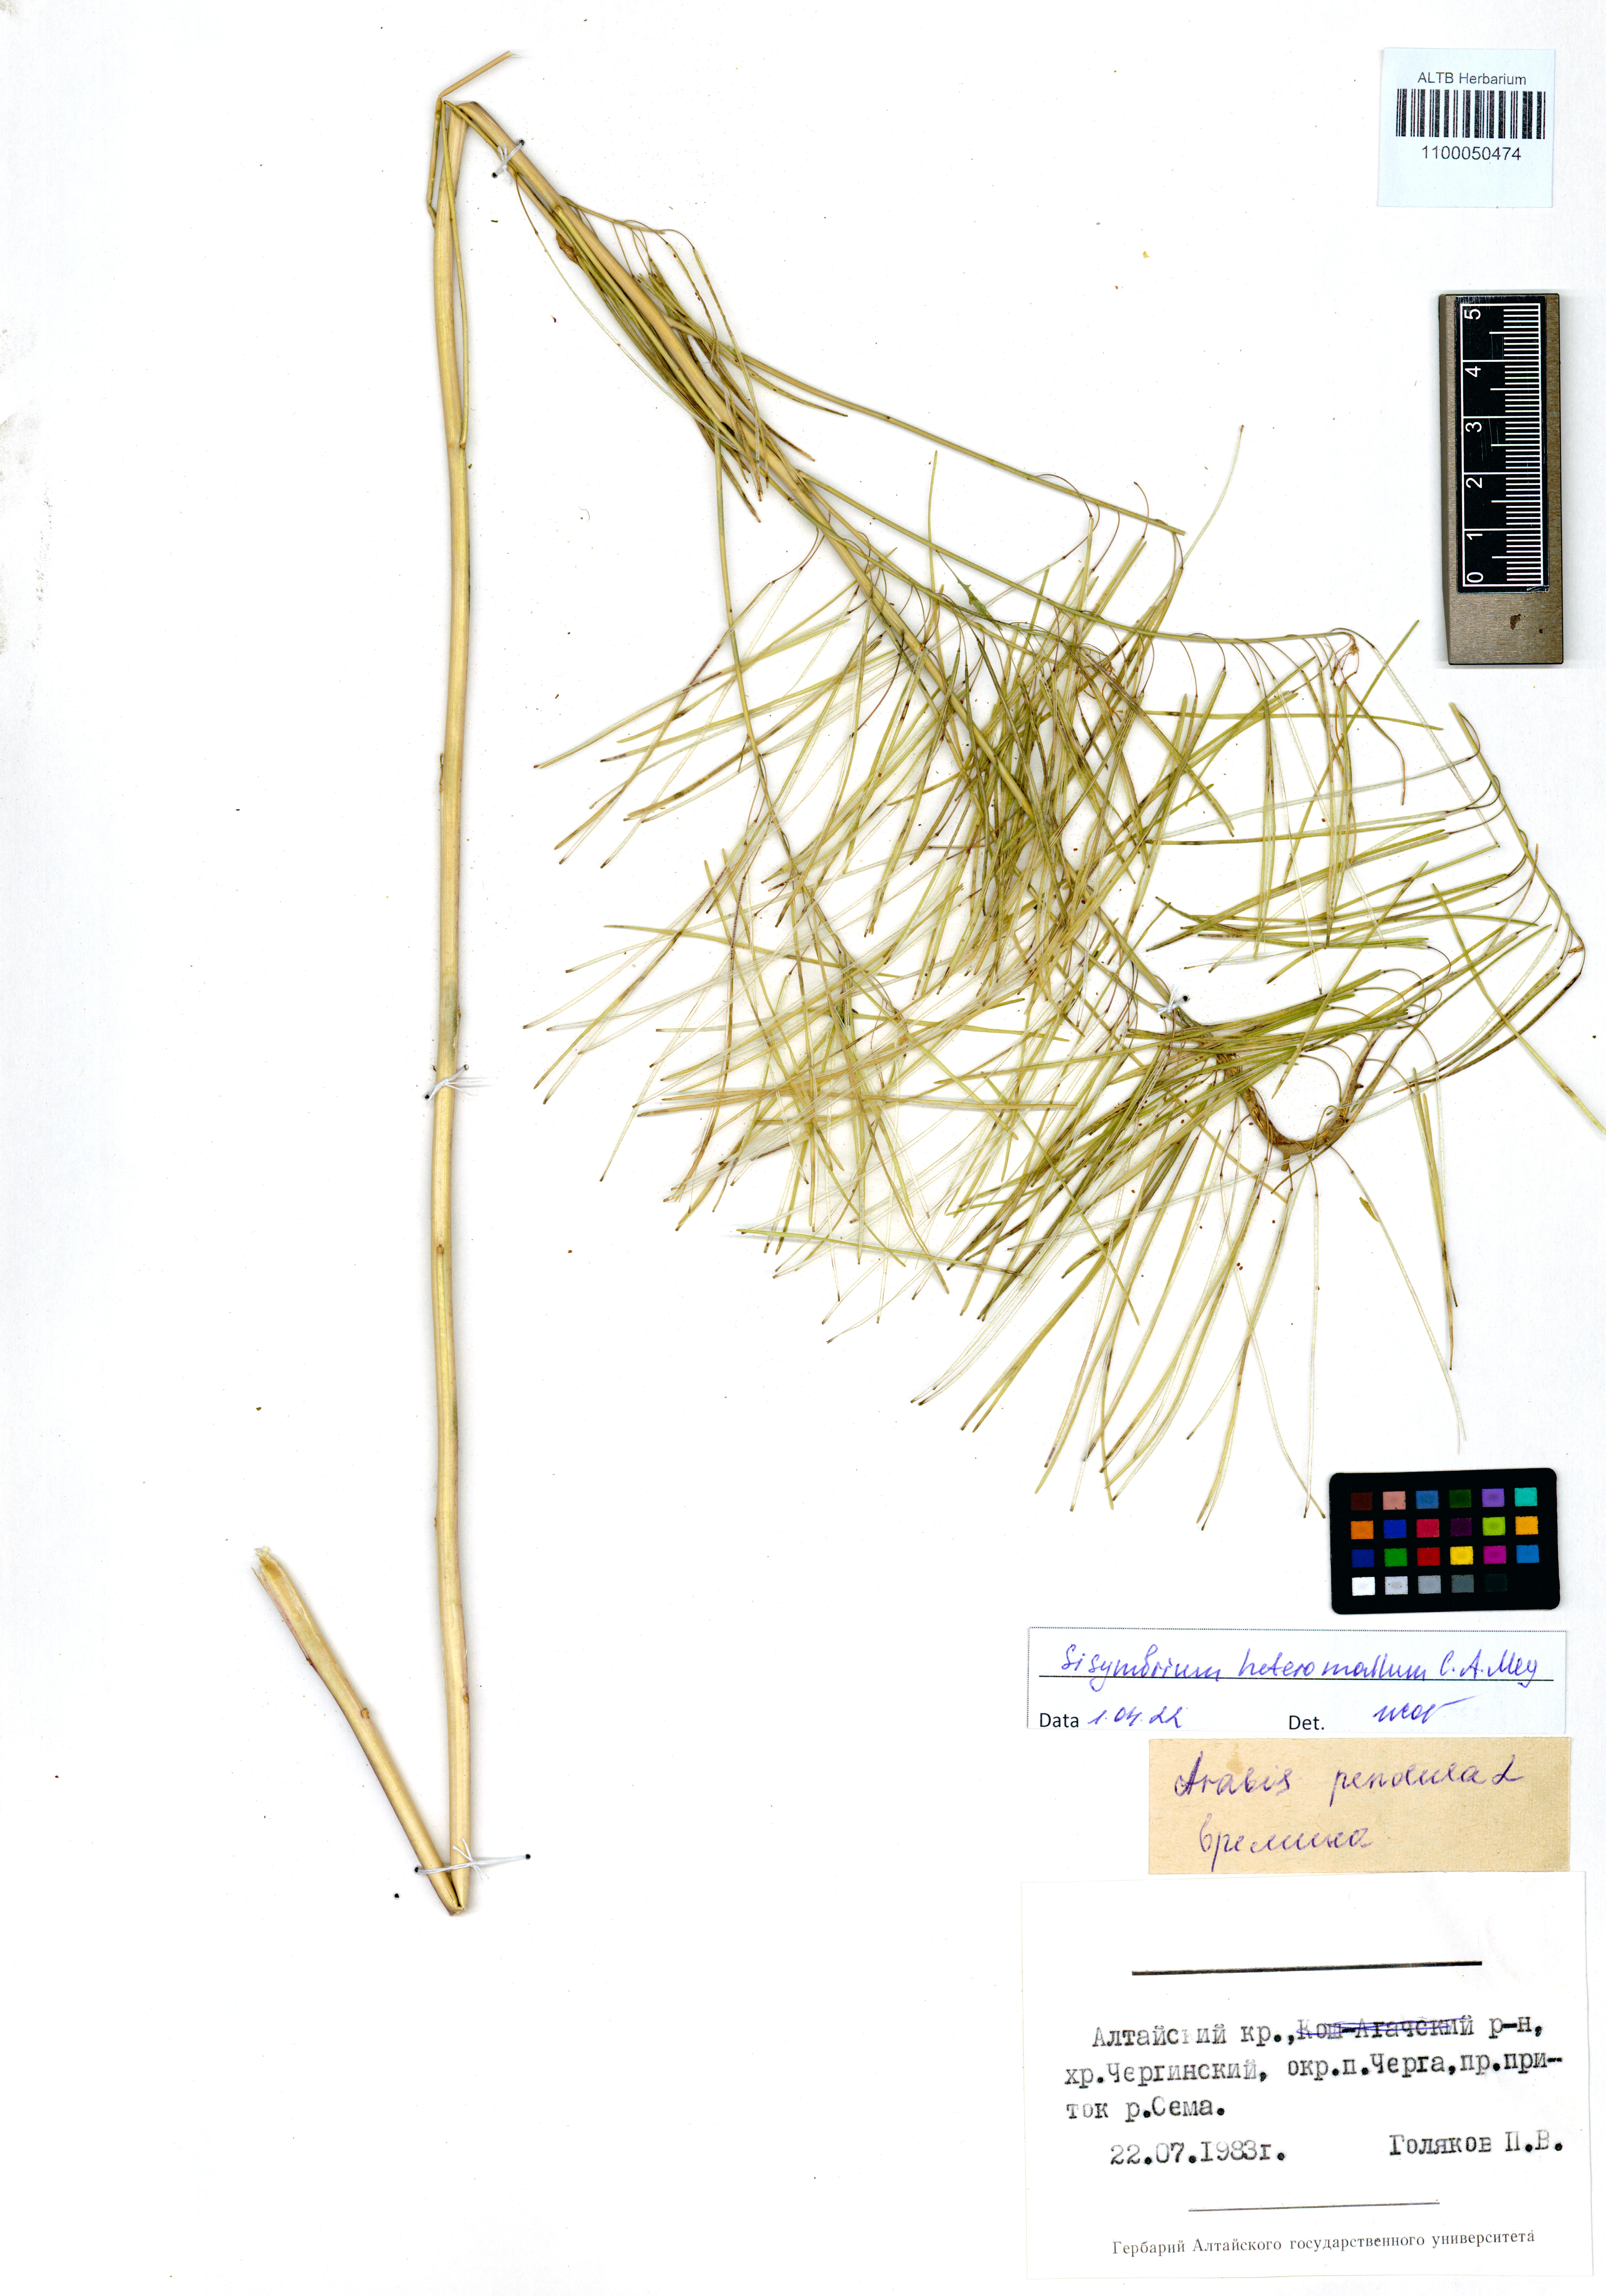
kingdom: Plantae
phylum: Tracheophyta
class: Magnoliopsida
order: Brassicales
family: Brassicaceae
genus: Sisymbrium
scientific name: Sisymbrium heteromallum
